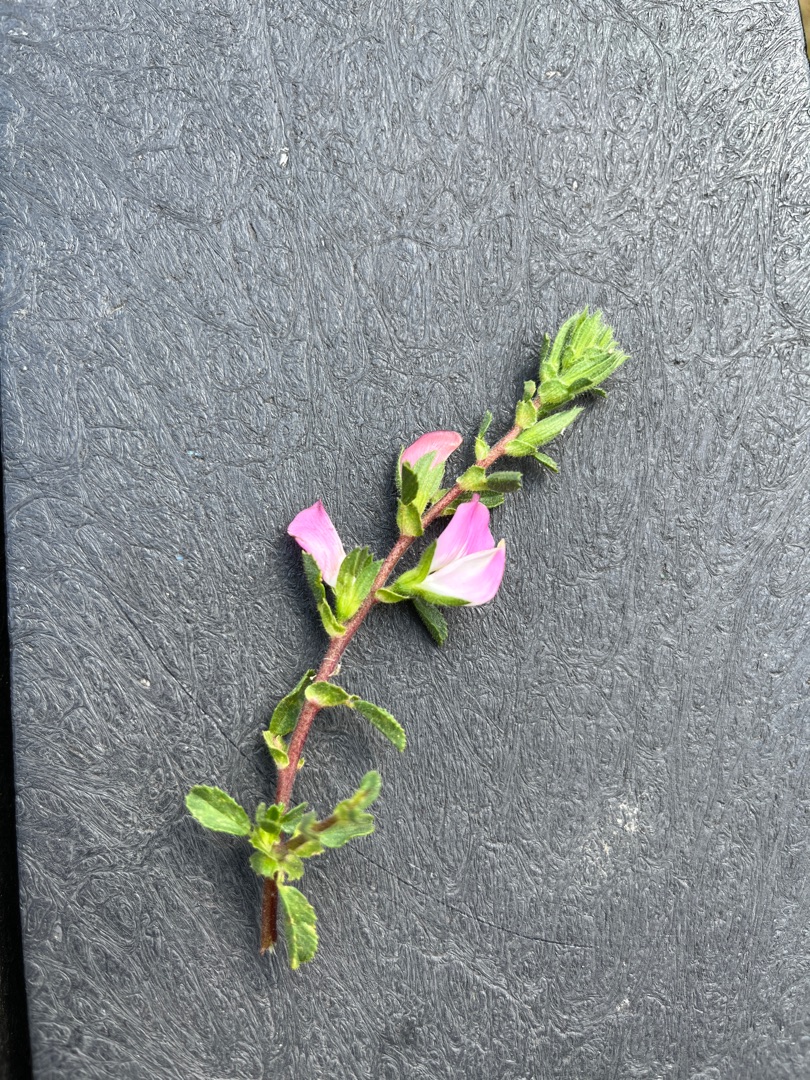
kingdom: Plantae
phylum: Tracheophyta
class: Magnoliopsida
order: Fabales
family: Fabaceae
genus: Ononis
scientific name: Ononis spinosa
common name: Mark-krageklo
